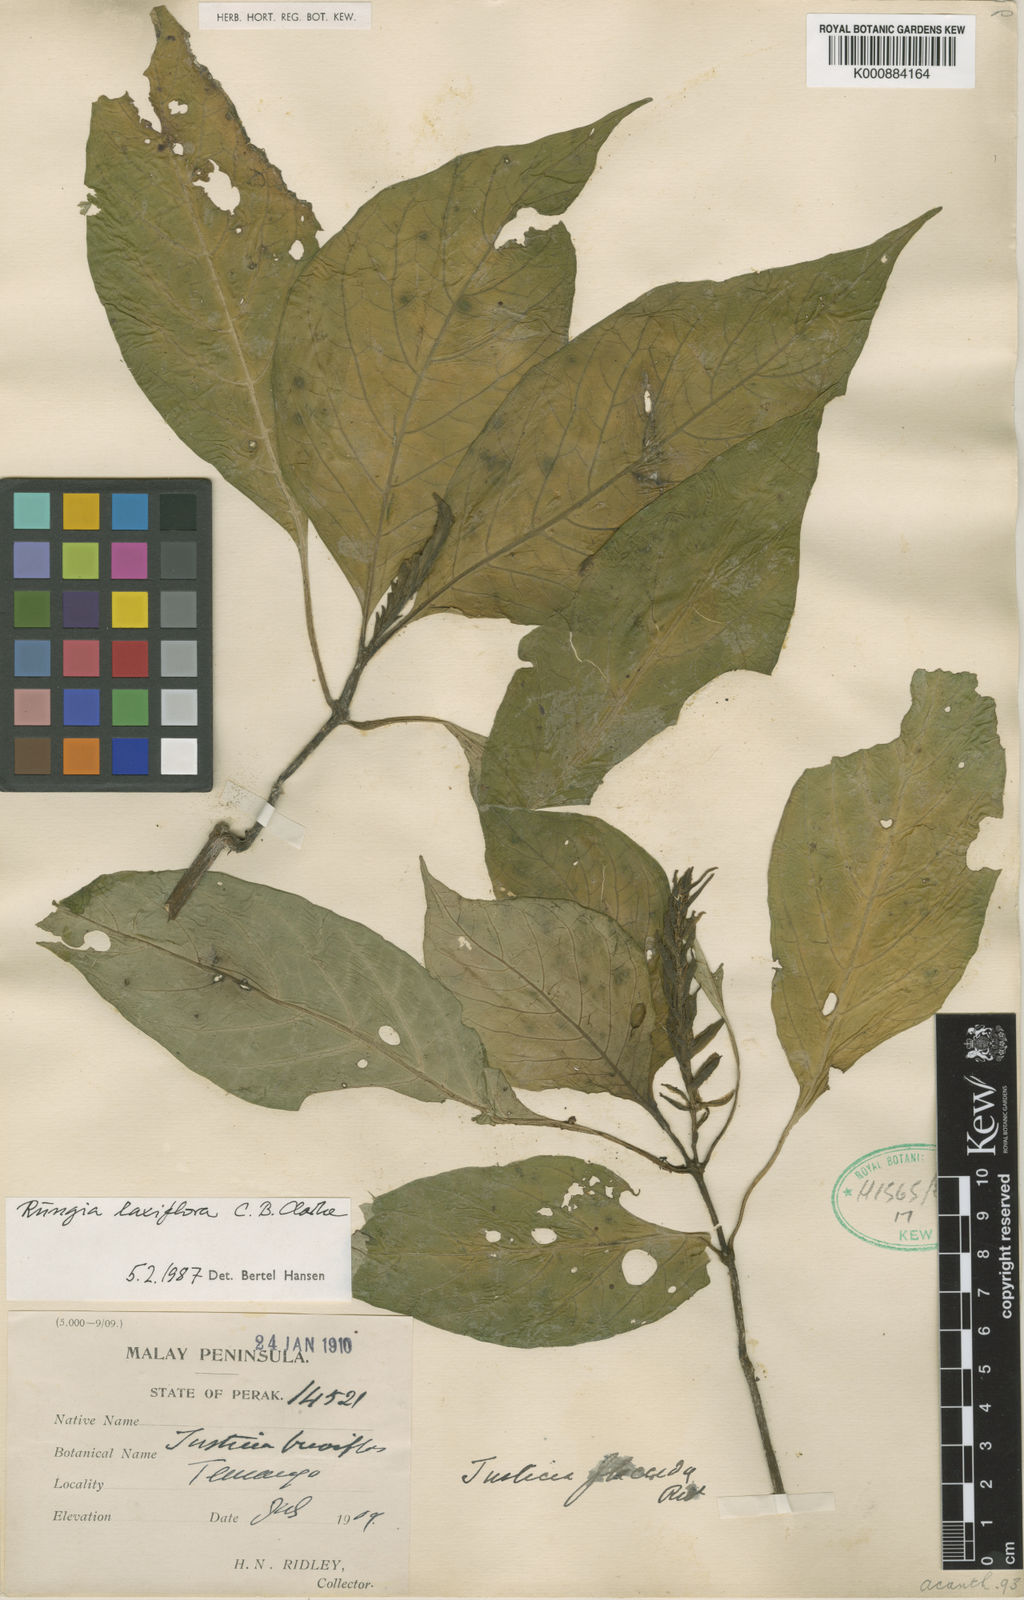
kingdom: Plantae
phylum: Tracheophyta
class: Magnoliopsida
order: Lamiales
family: Acanthaceae
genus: Haplanthus
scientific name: Haplanthus laxiflorus
